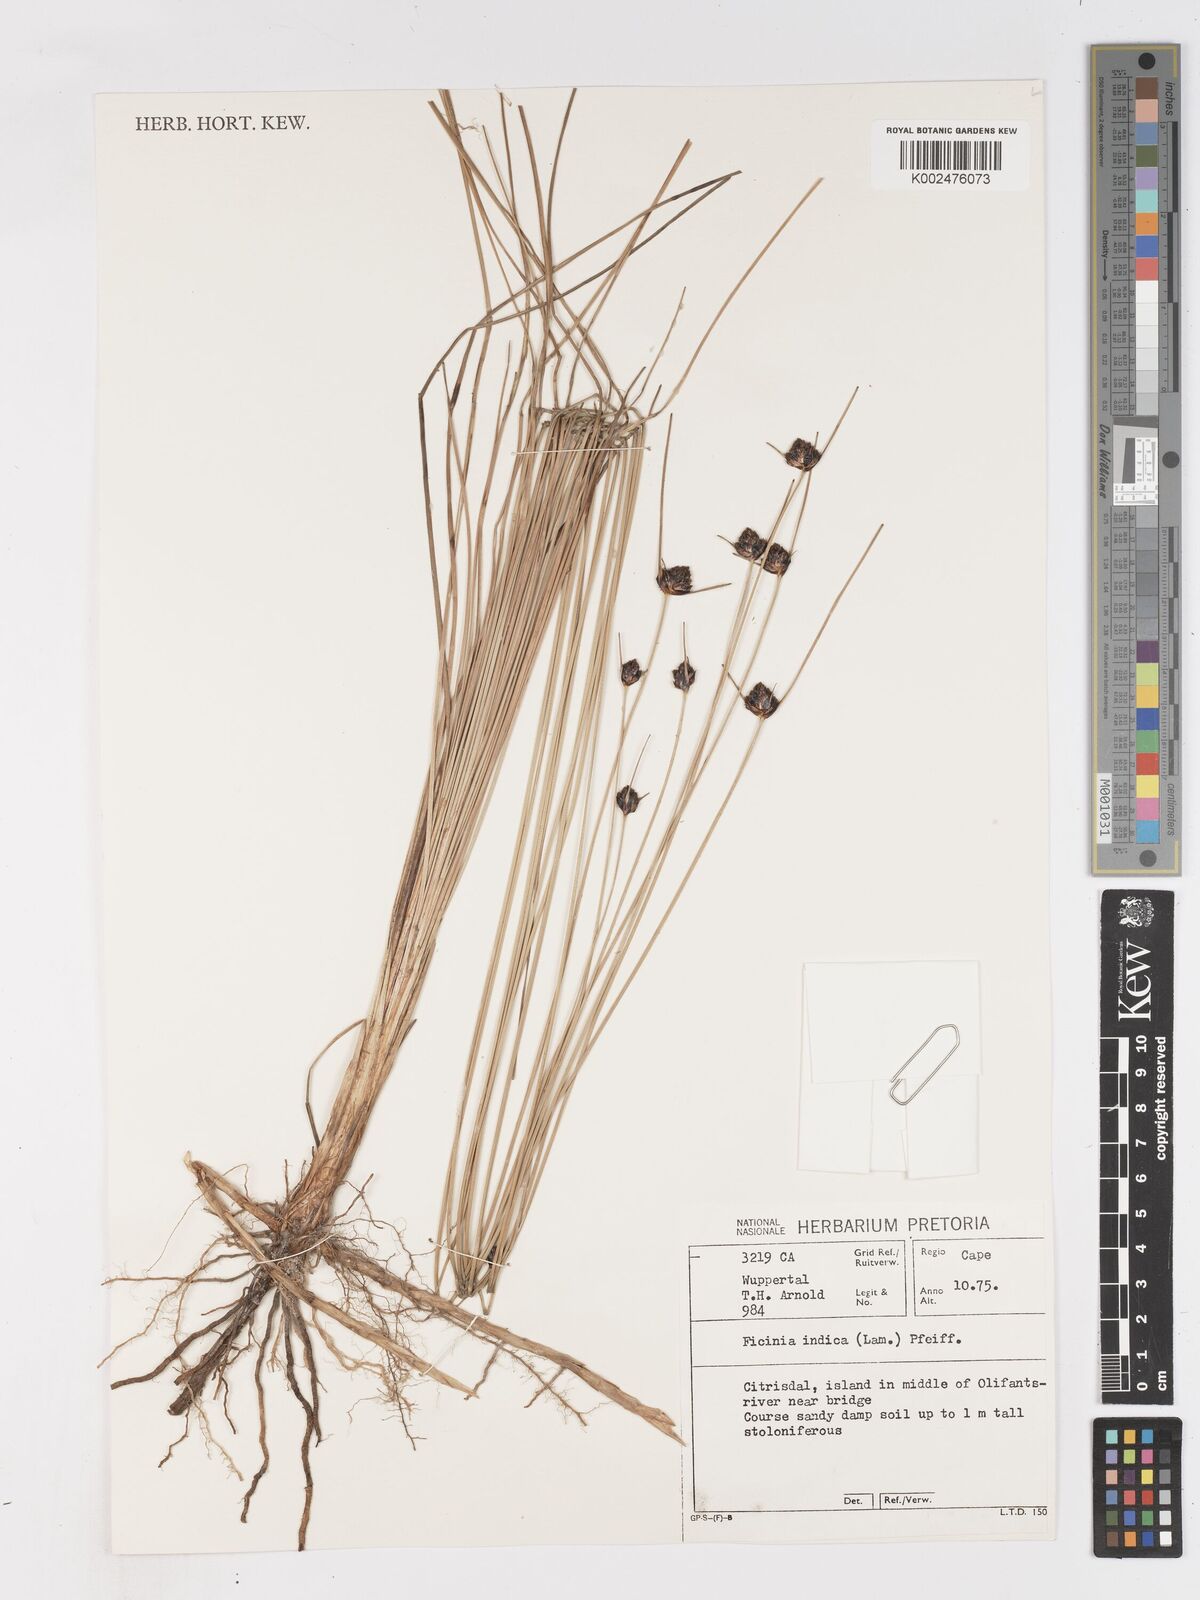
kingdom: Plantae
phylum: Tracheophyta
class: Liliopsida
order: Poales
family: Cyperaceae
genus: Ficinia
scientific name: Ficinia indica
